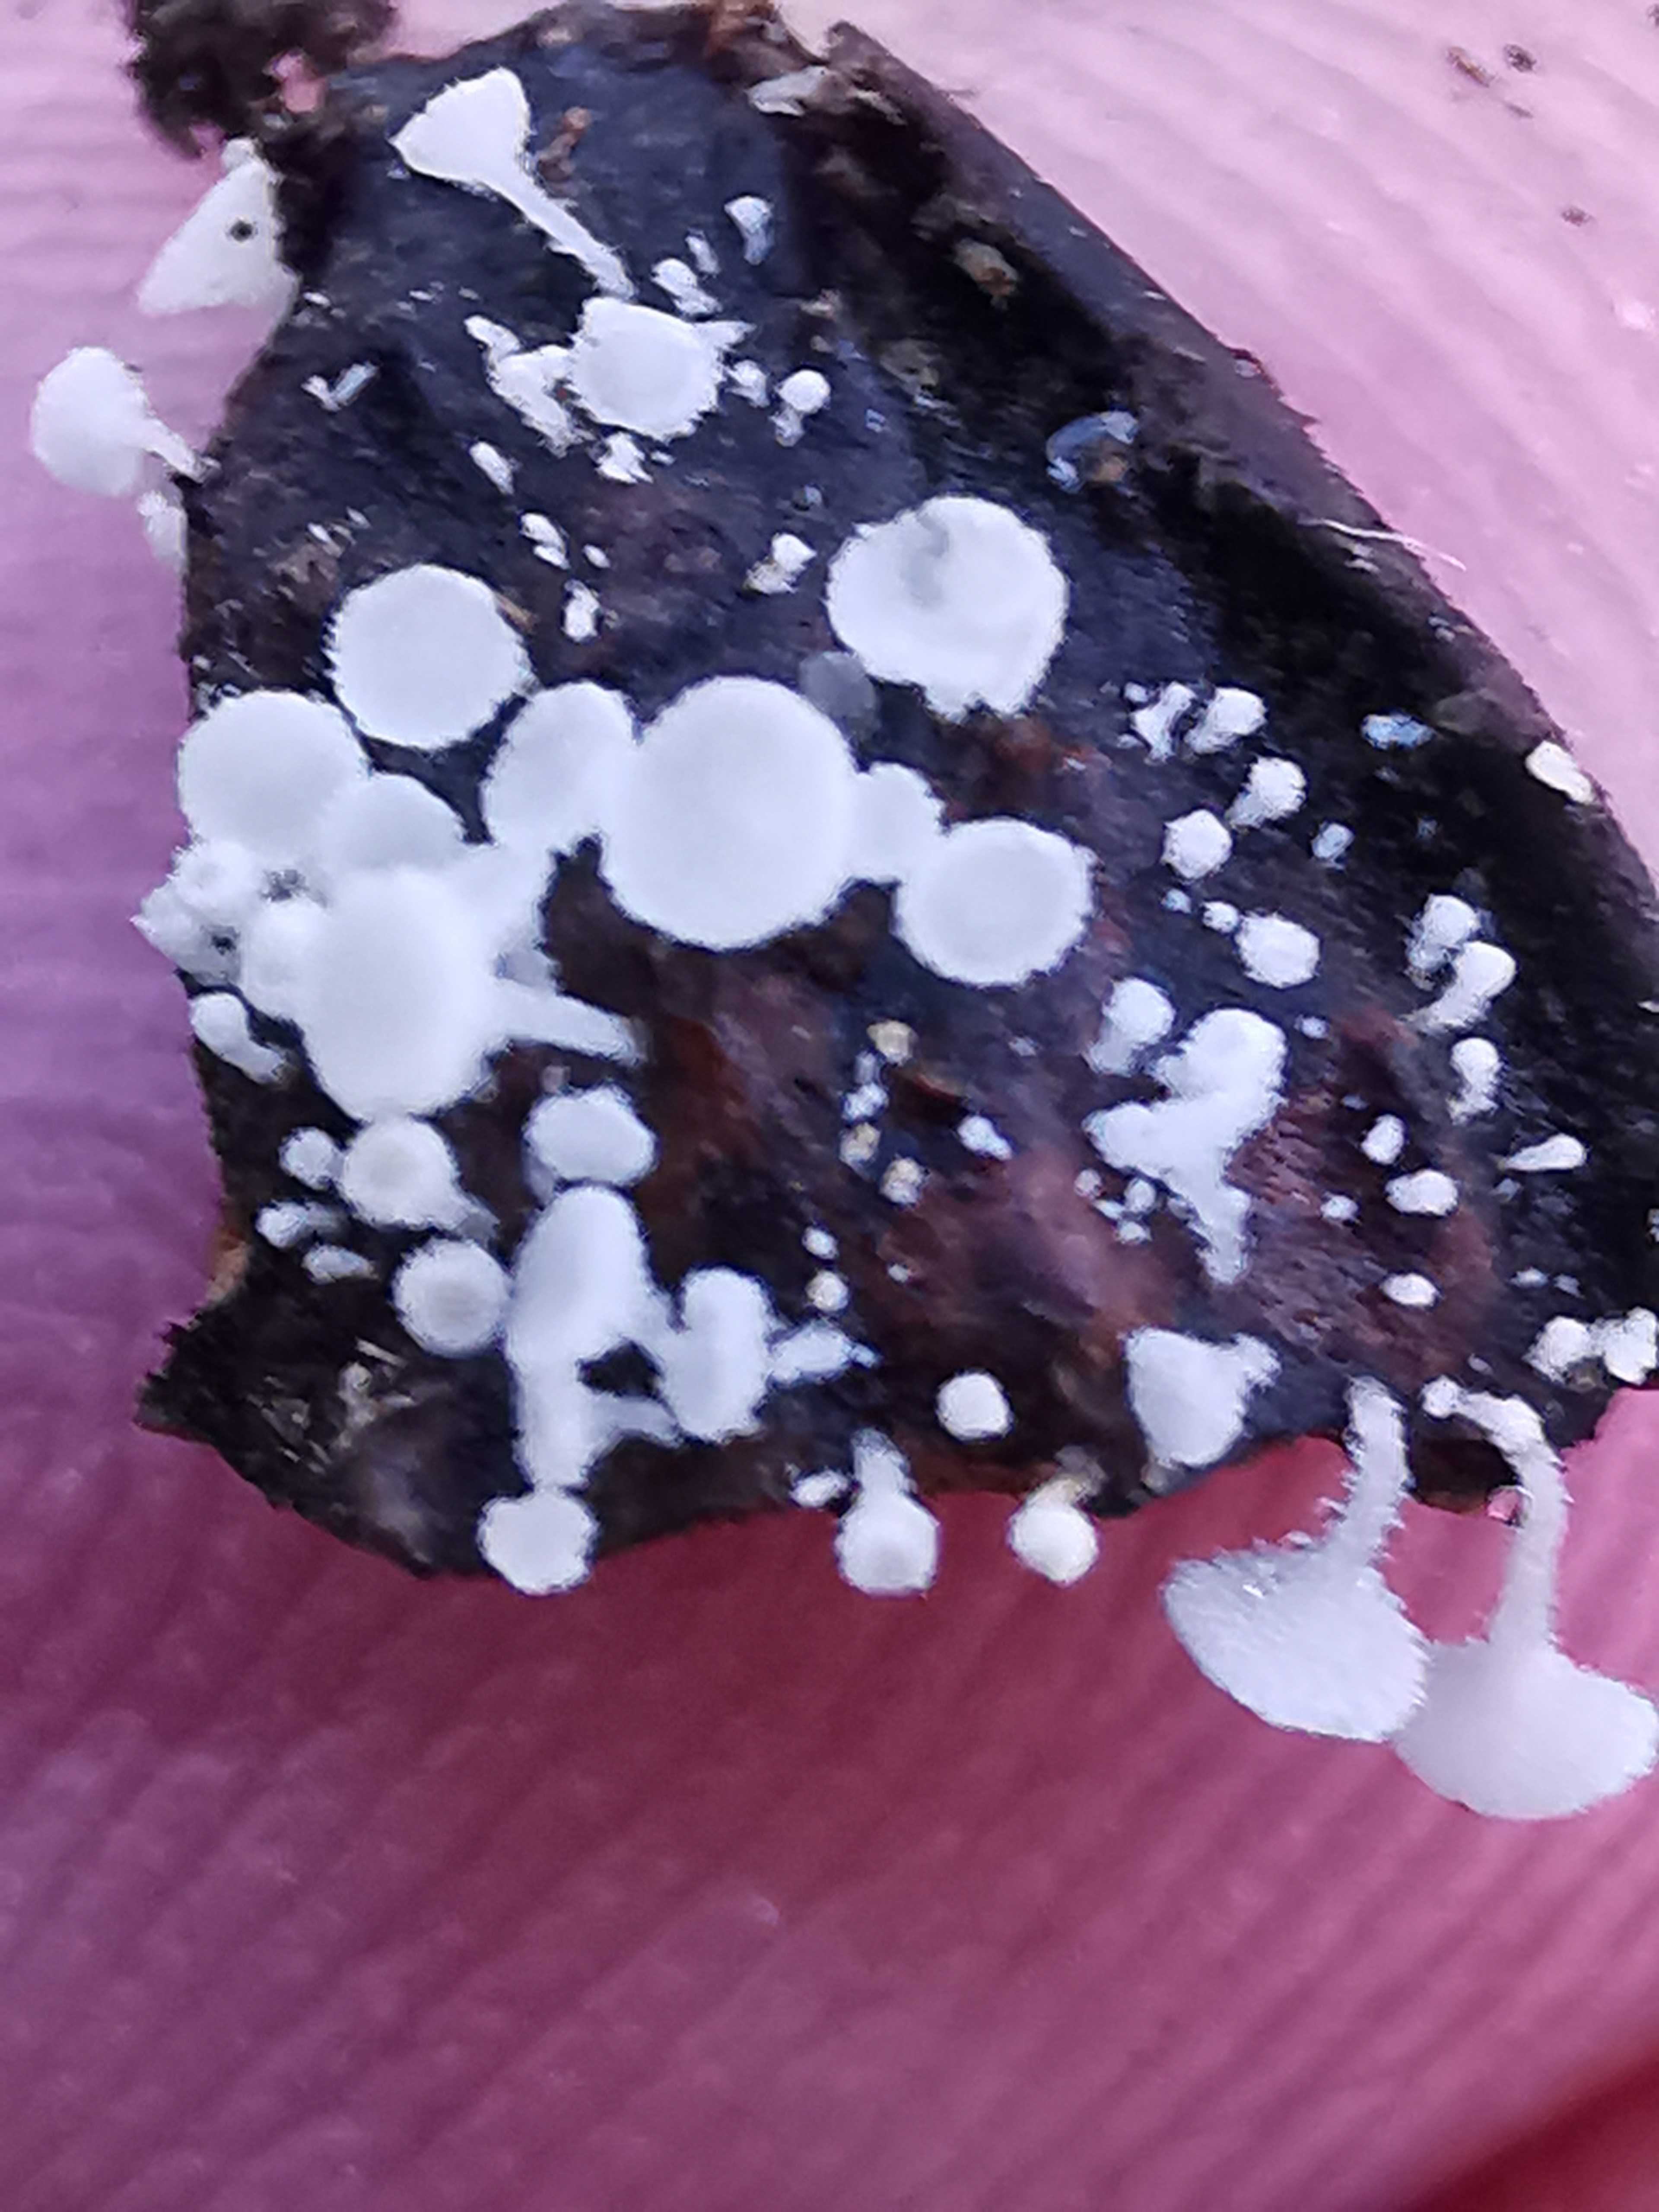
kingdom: Fungi
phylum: Ascomycota
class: Leotiomycetes
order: Helotiales
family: Lachnaceae
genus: Lachnum
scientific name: Lachnum virgineum
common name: jomfru-frynseskive
